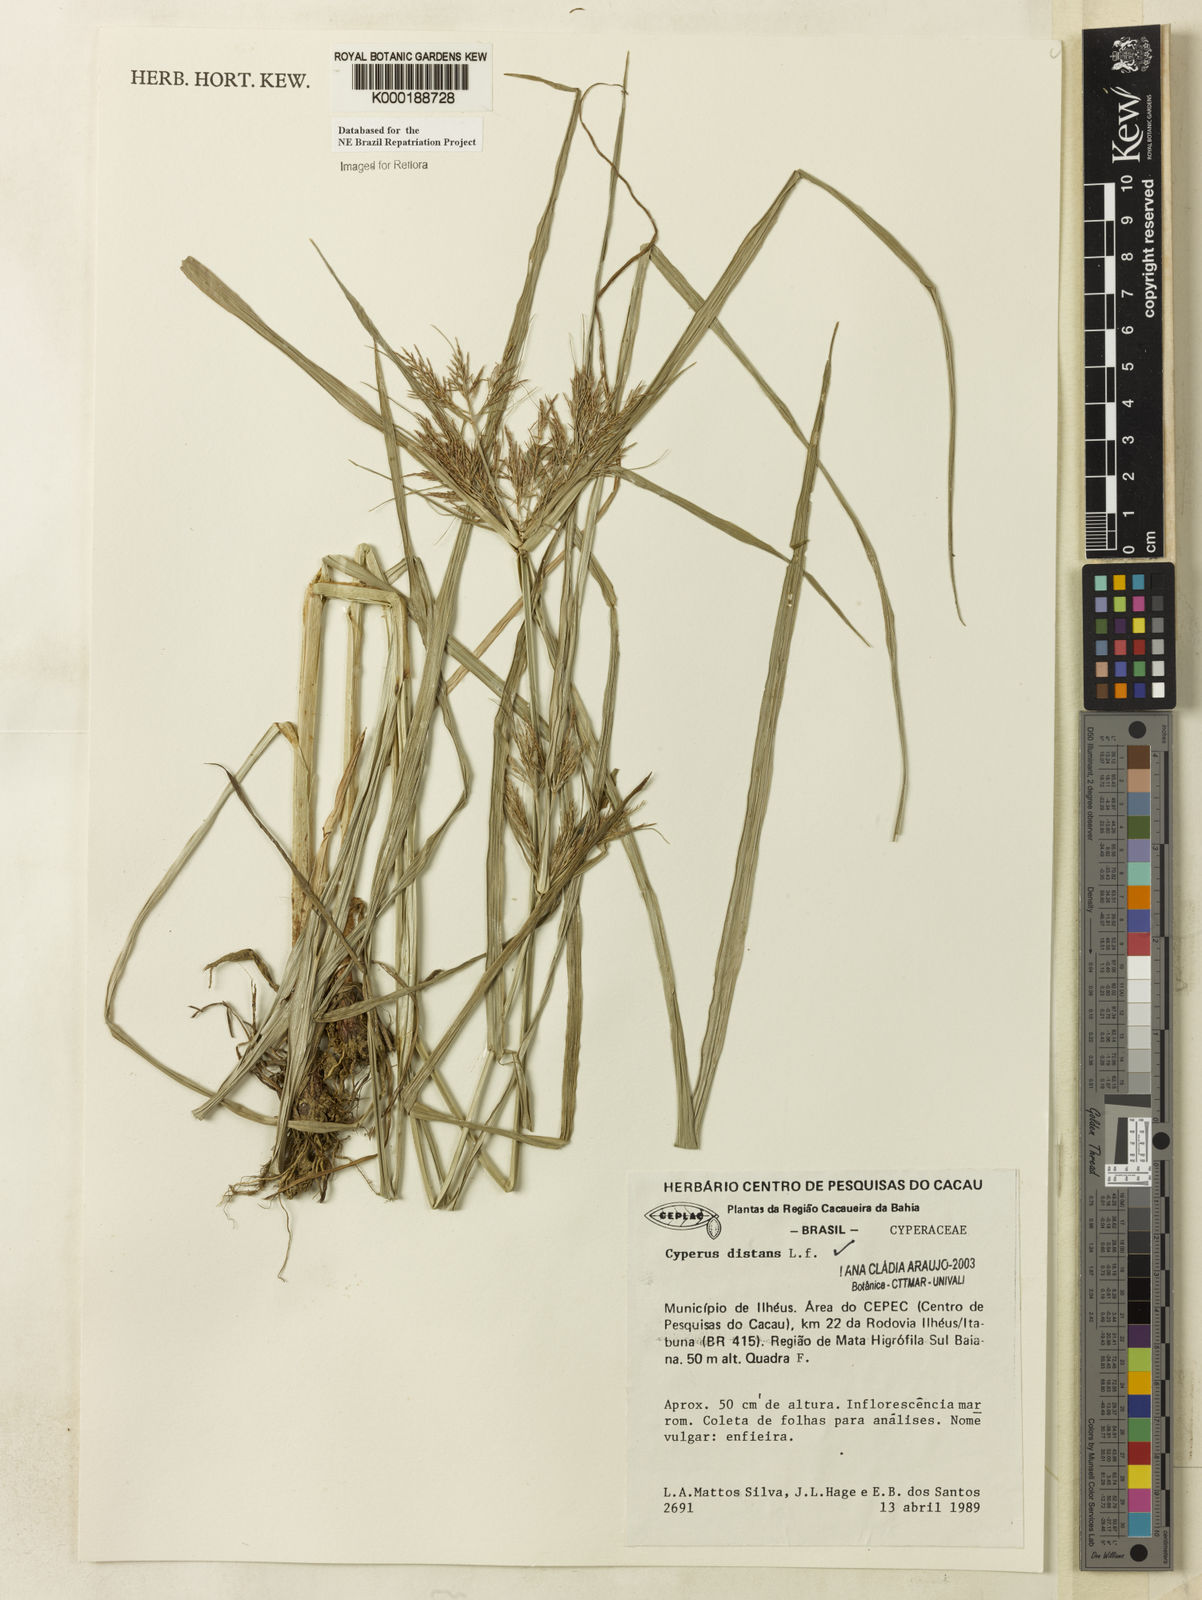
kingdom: Plantae
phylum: Tracheophyta
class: Liliopsida
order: Poales
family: Cyperaceae
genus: Cyperus
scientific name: Cyperus distans
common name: Slender cyperus
